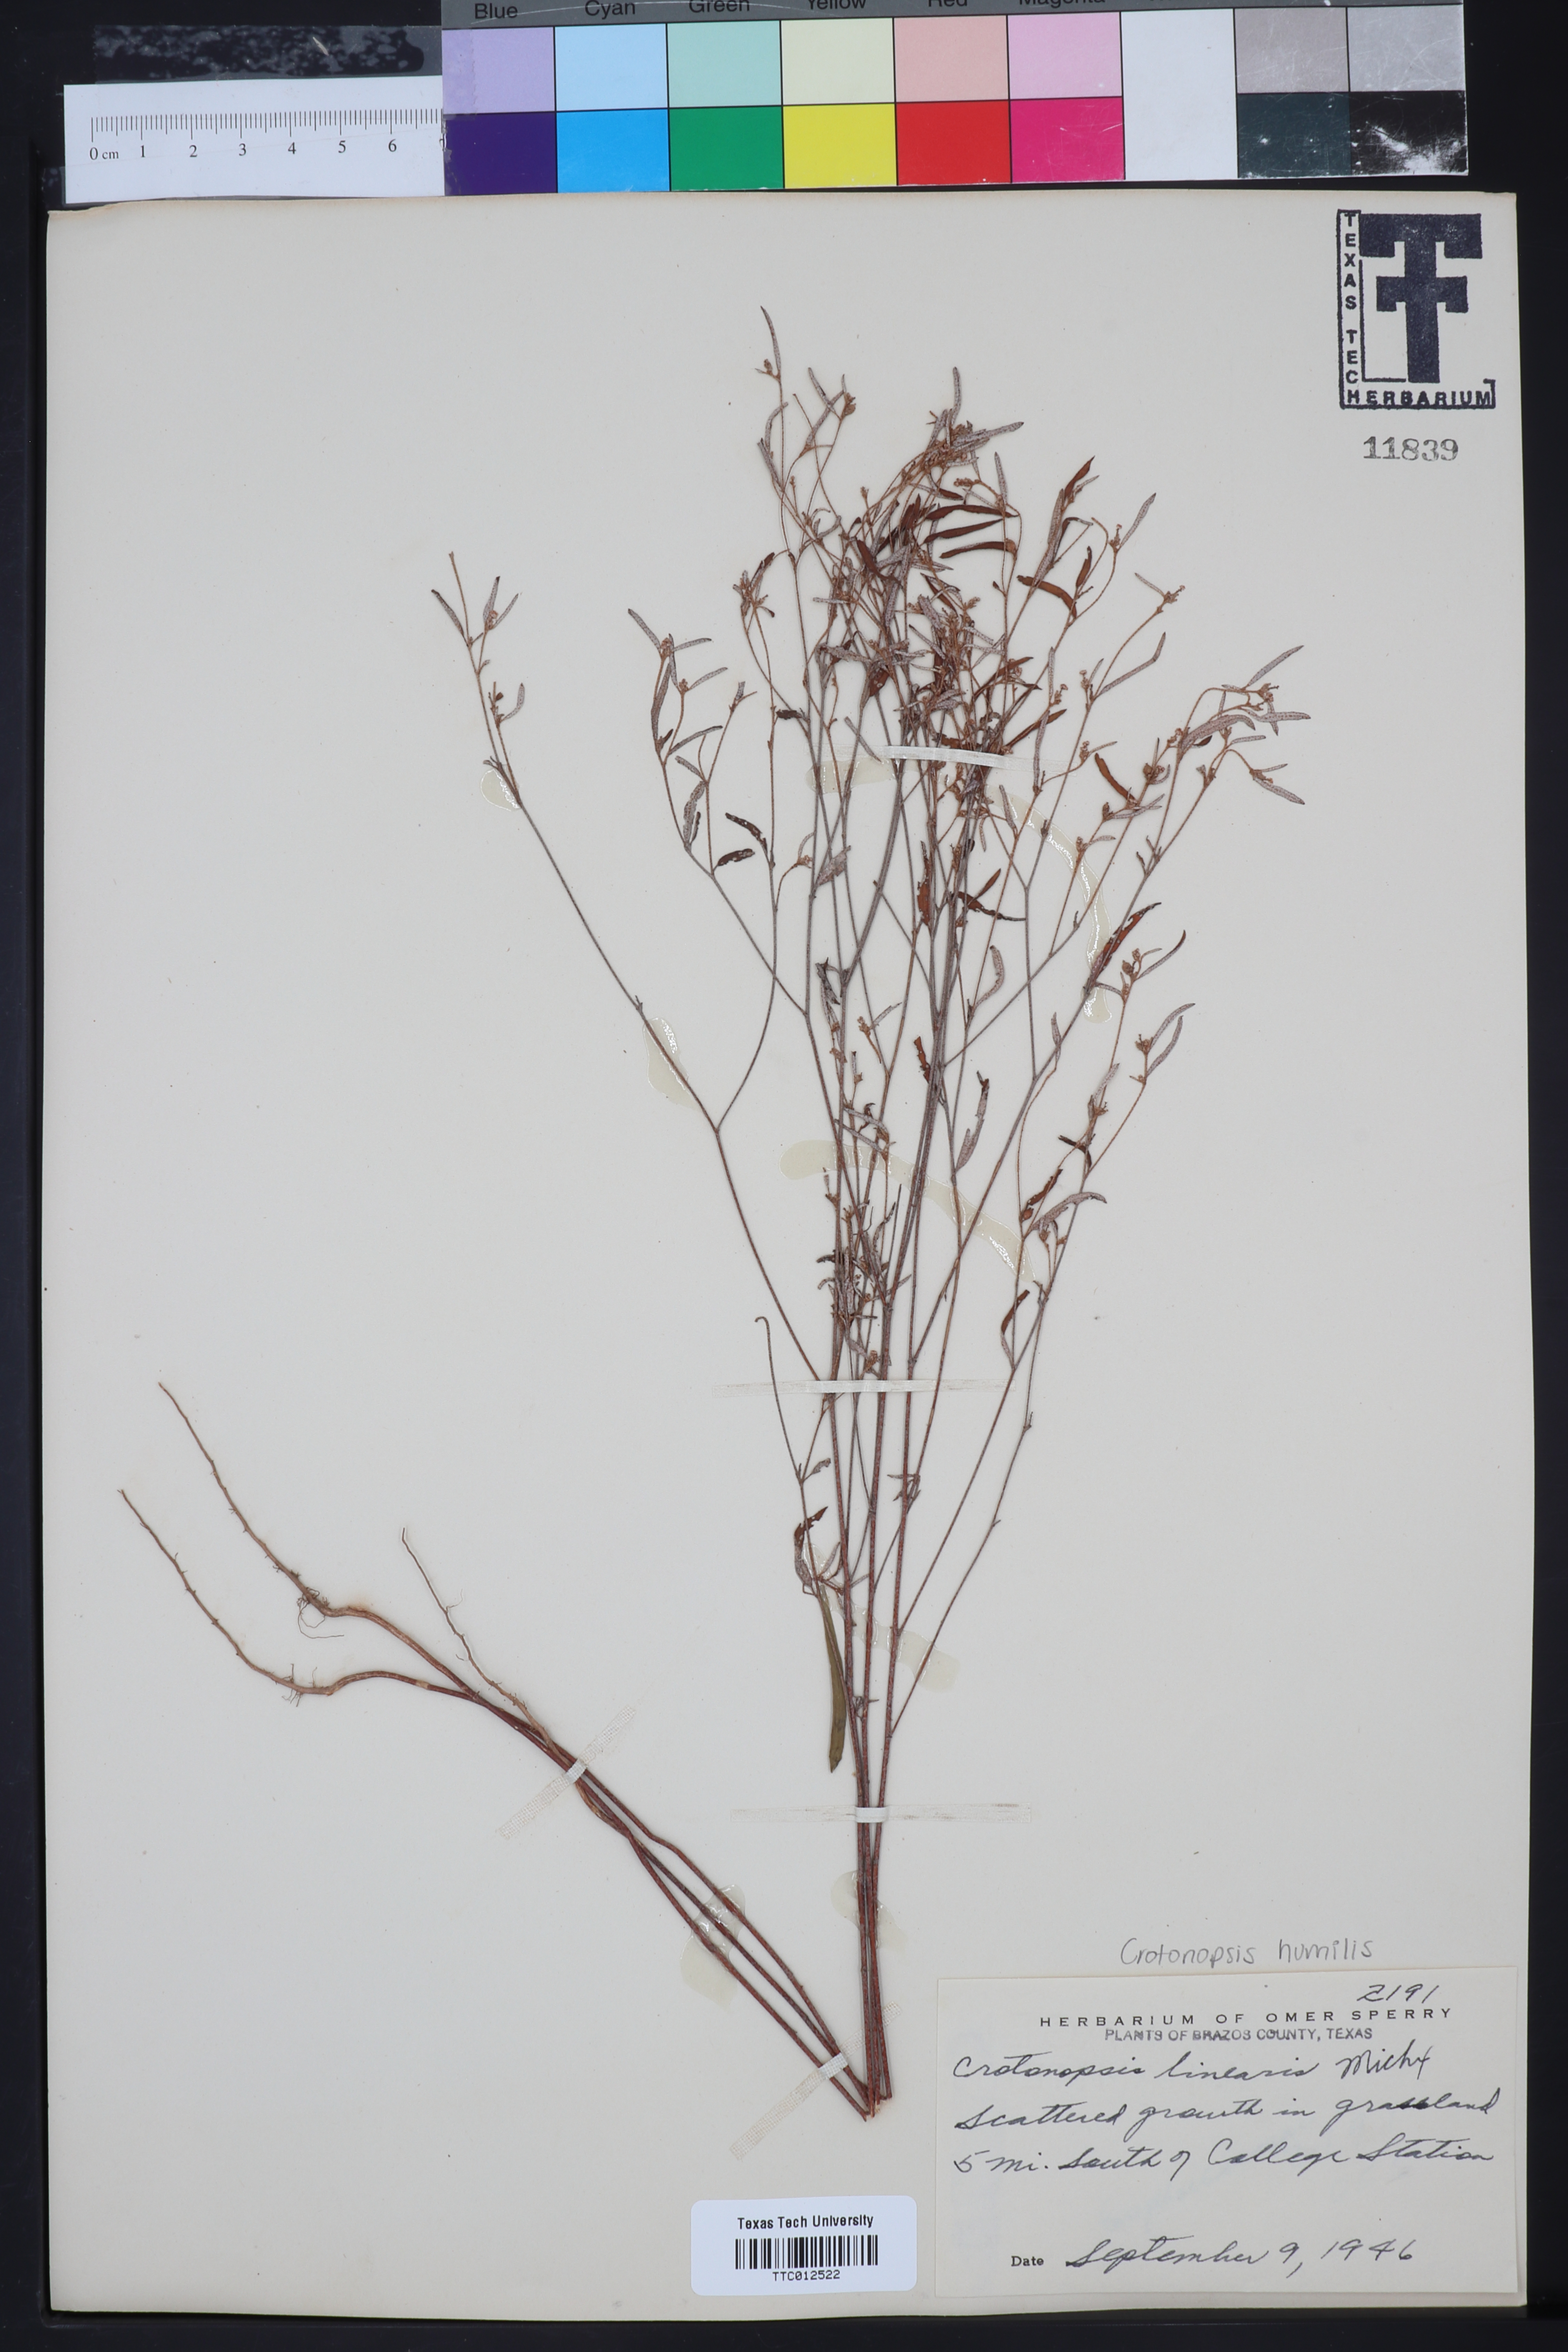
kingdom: Plantae
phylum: Tracheophyta
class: Magnoliopsida
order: Malpighiales
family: Euphorbiaceae
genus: Croton
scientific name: Croton michauxii
